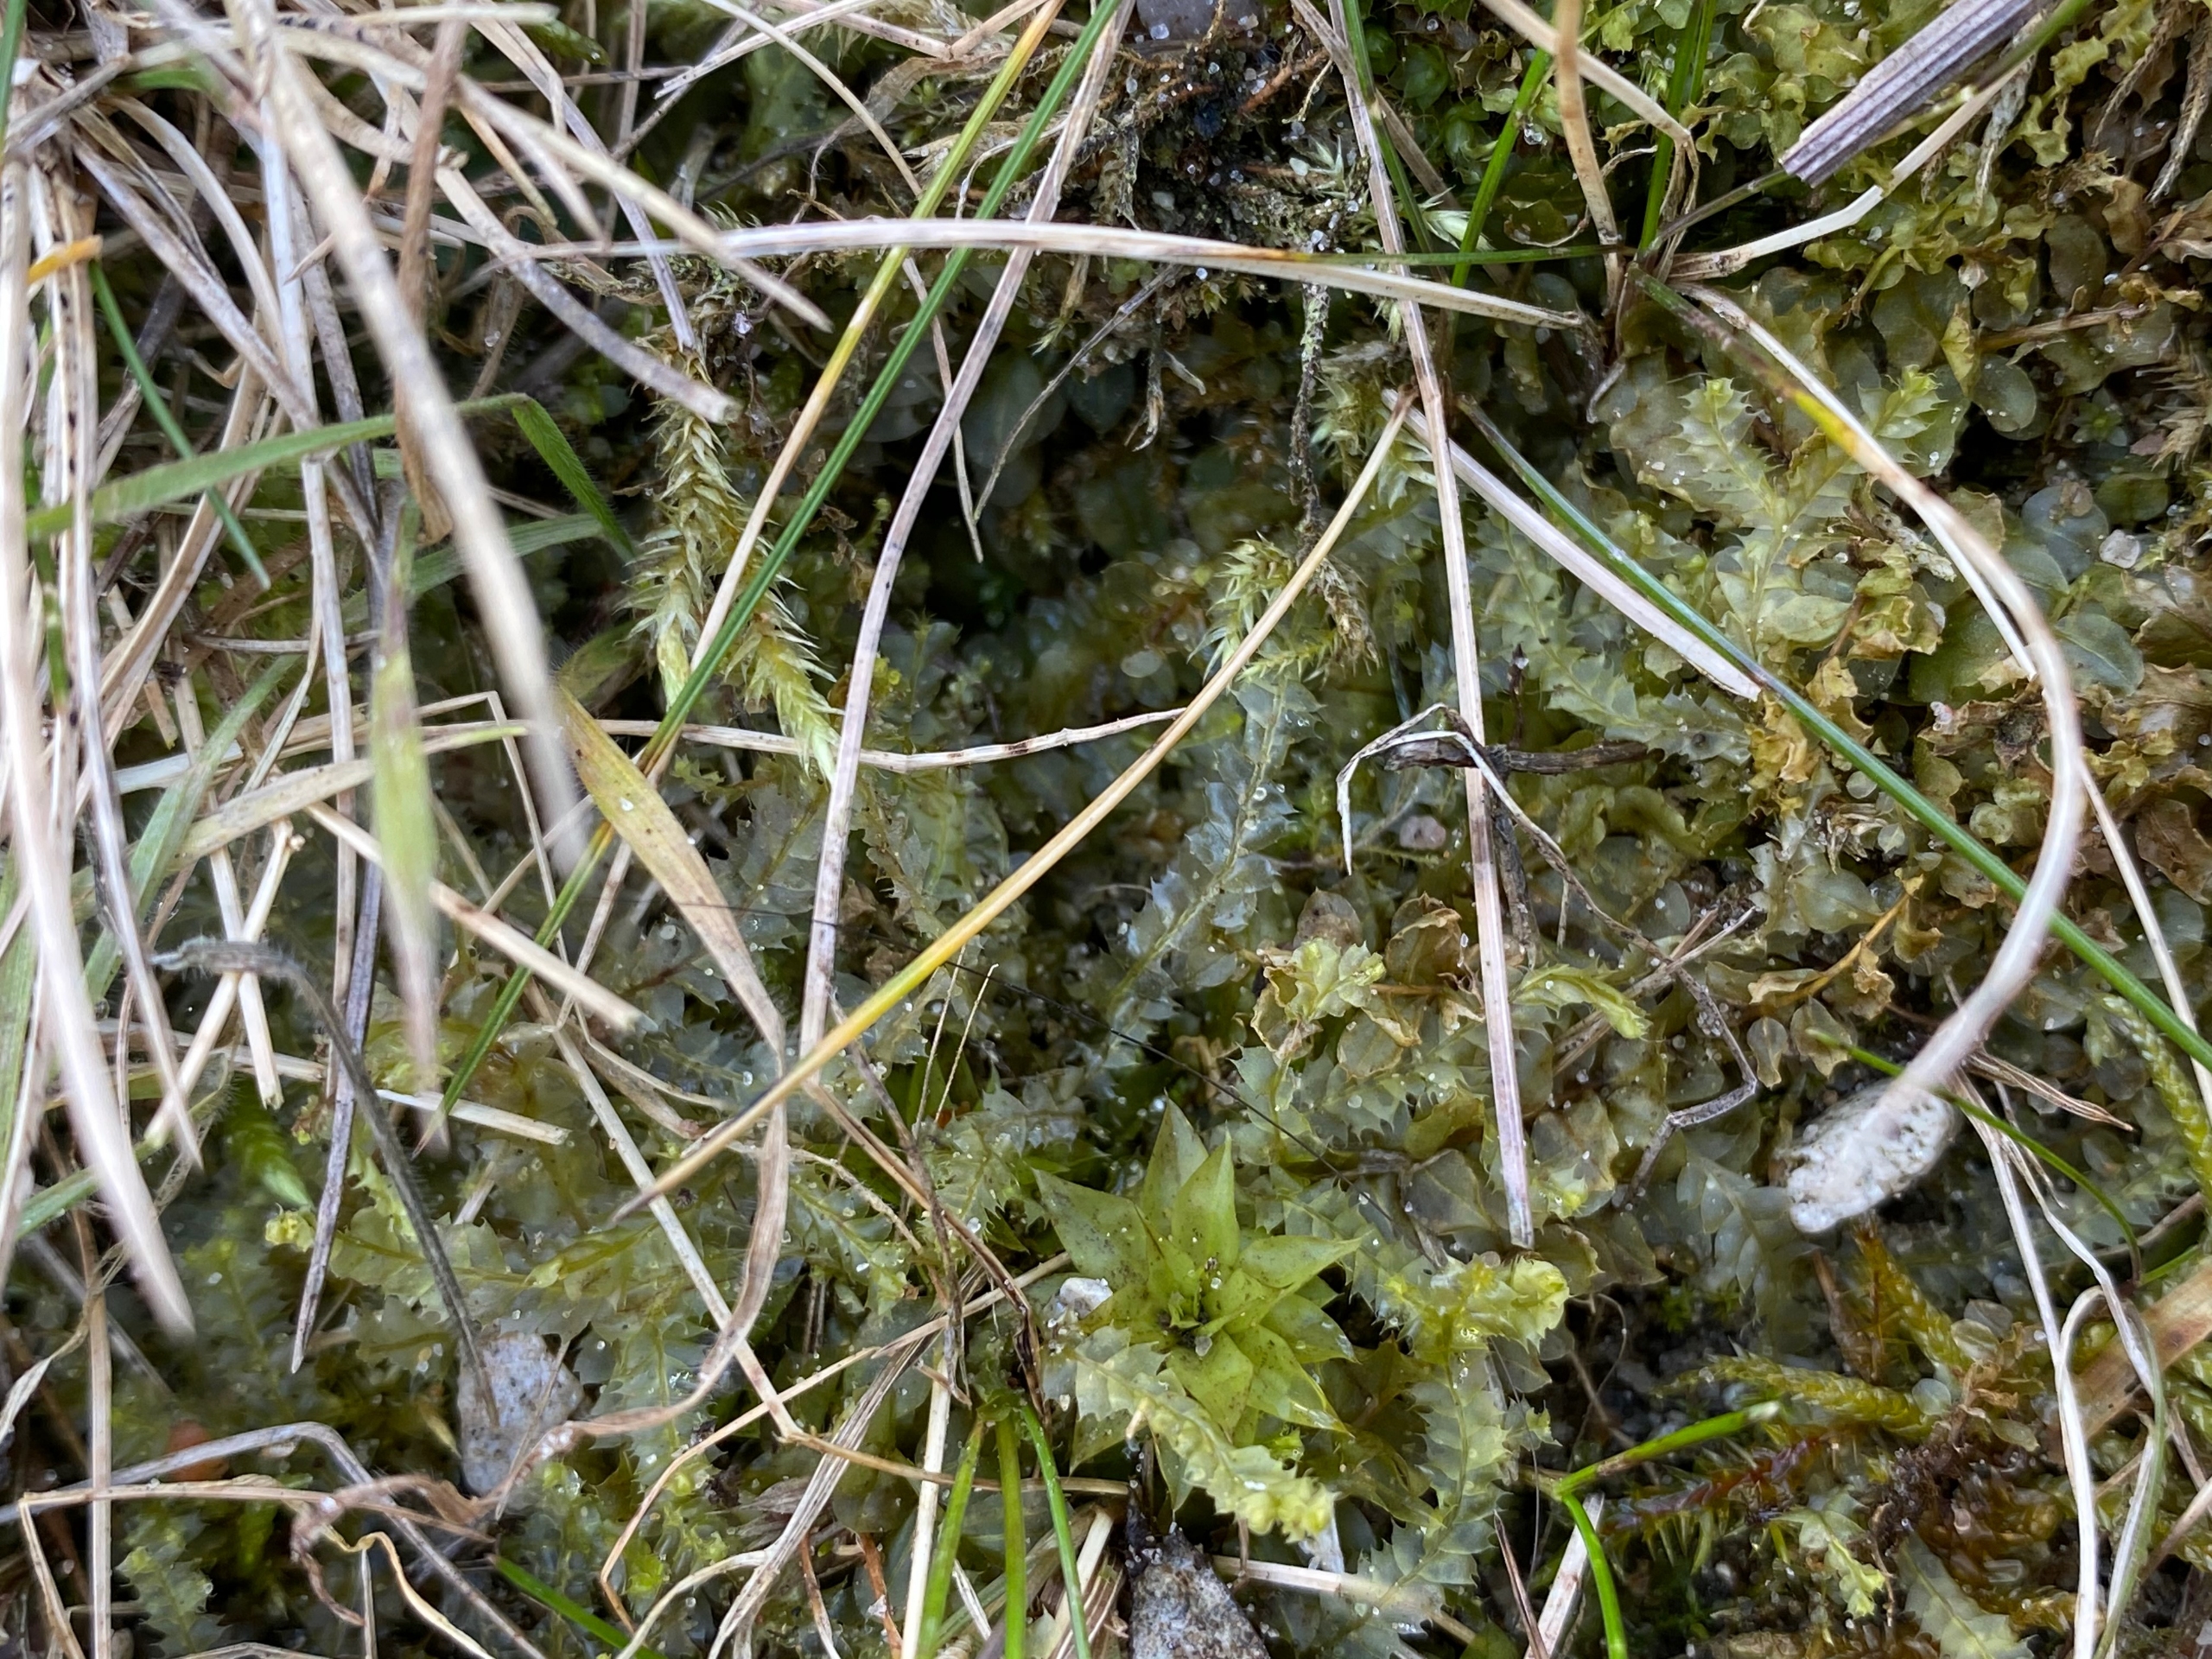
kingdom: Plantae
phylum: Marchantiophyta
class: Jungermanniopsida
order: Jungermanniales
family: Lophocoleaceae
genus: Lophocolea
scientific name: Lophocolea bidentata
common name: Sylspidset kamsvøb
